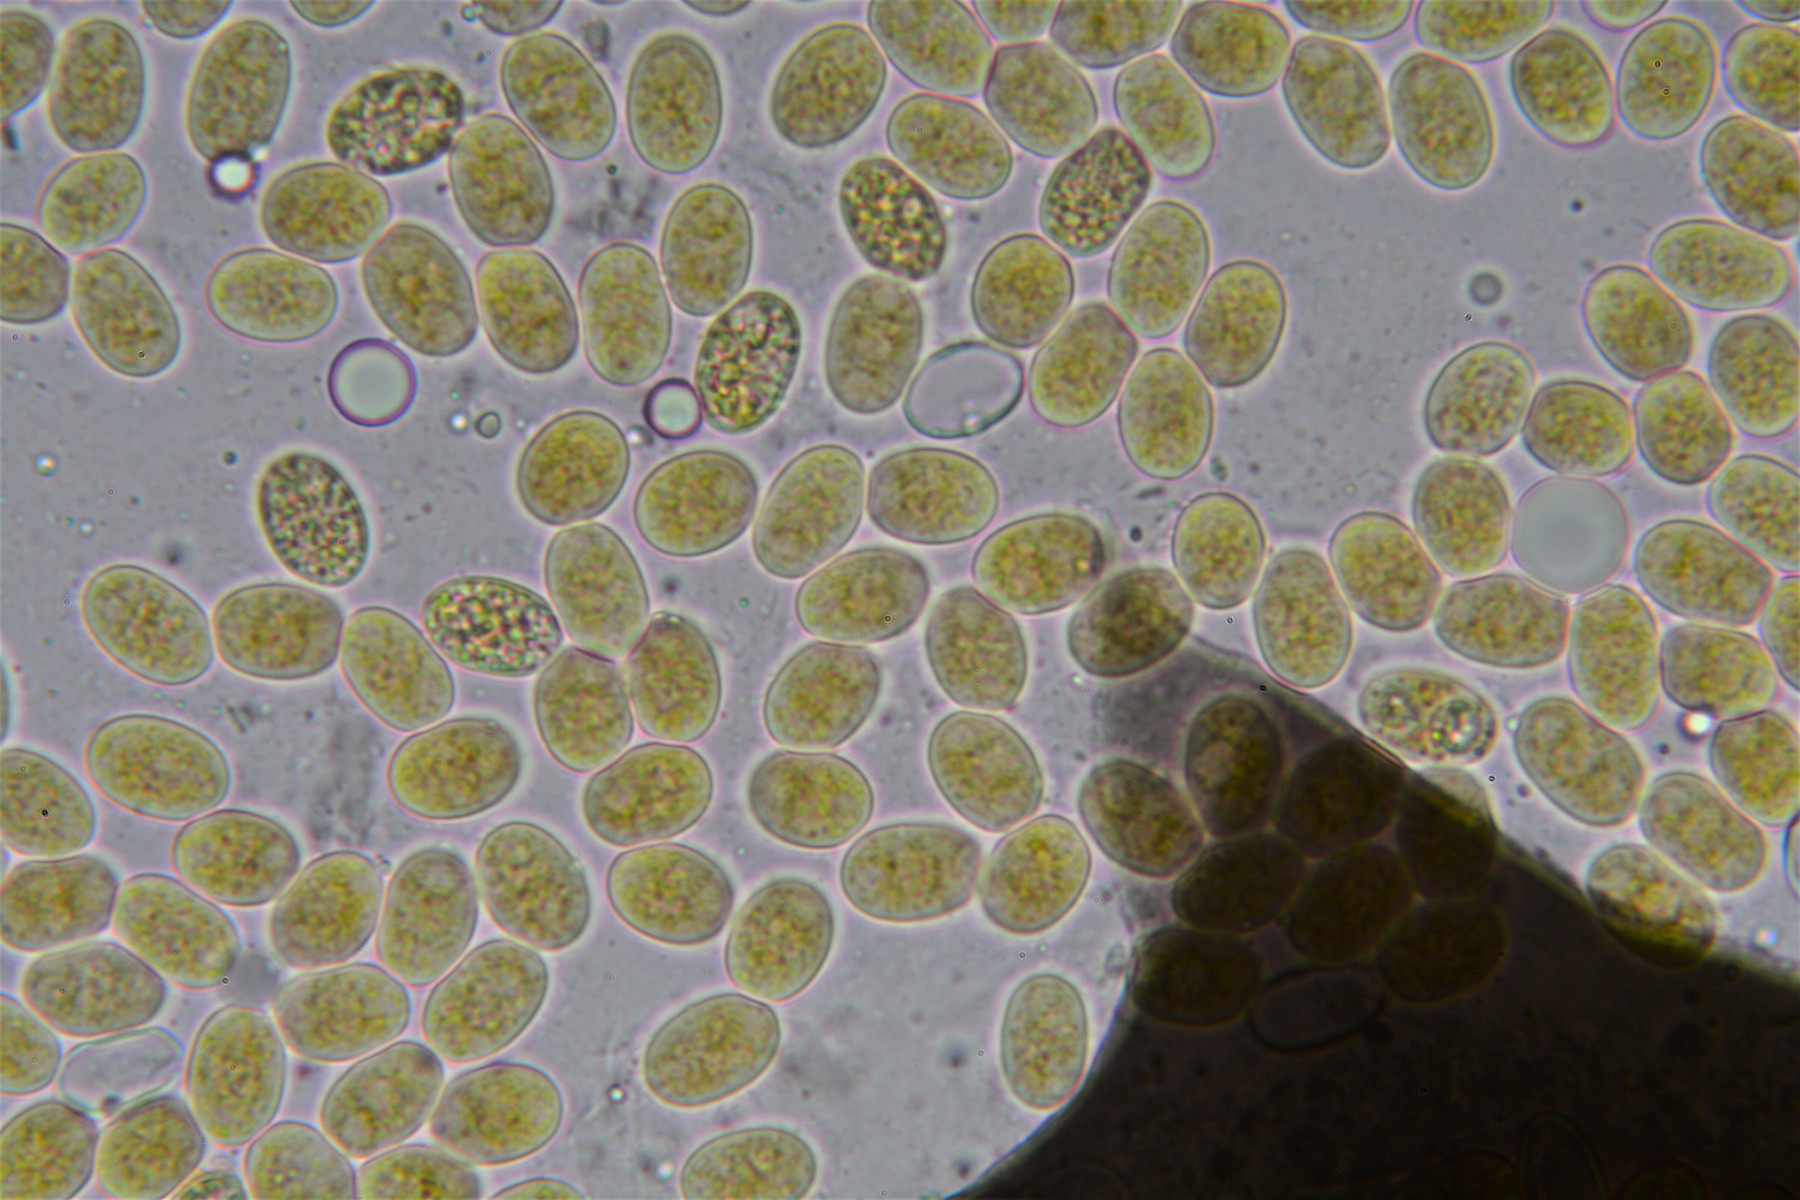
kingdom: Fungi
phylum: Mucoromycota
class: Mucoromycetes
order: Mucorales
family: Pilobolaceae
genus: Pilobolus
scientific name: Pilobolus kleinii
